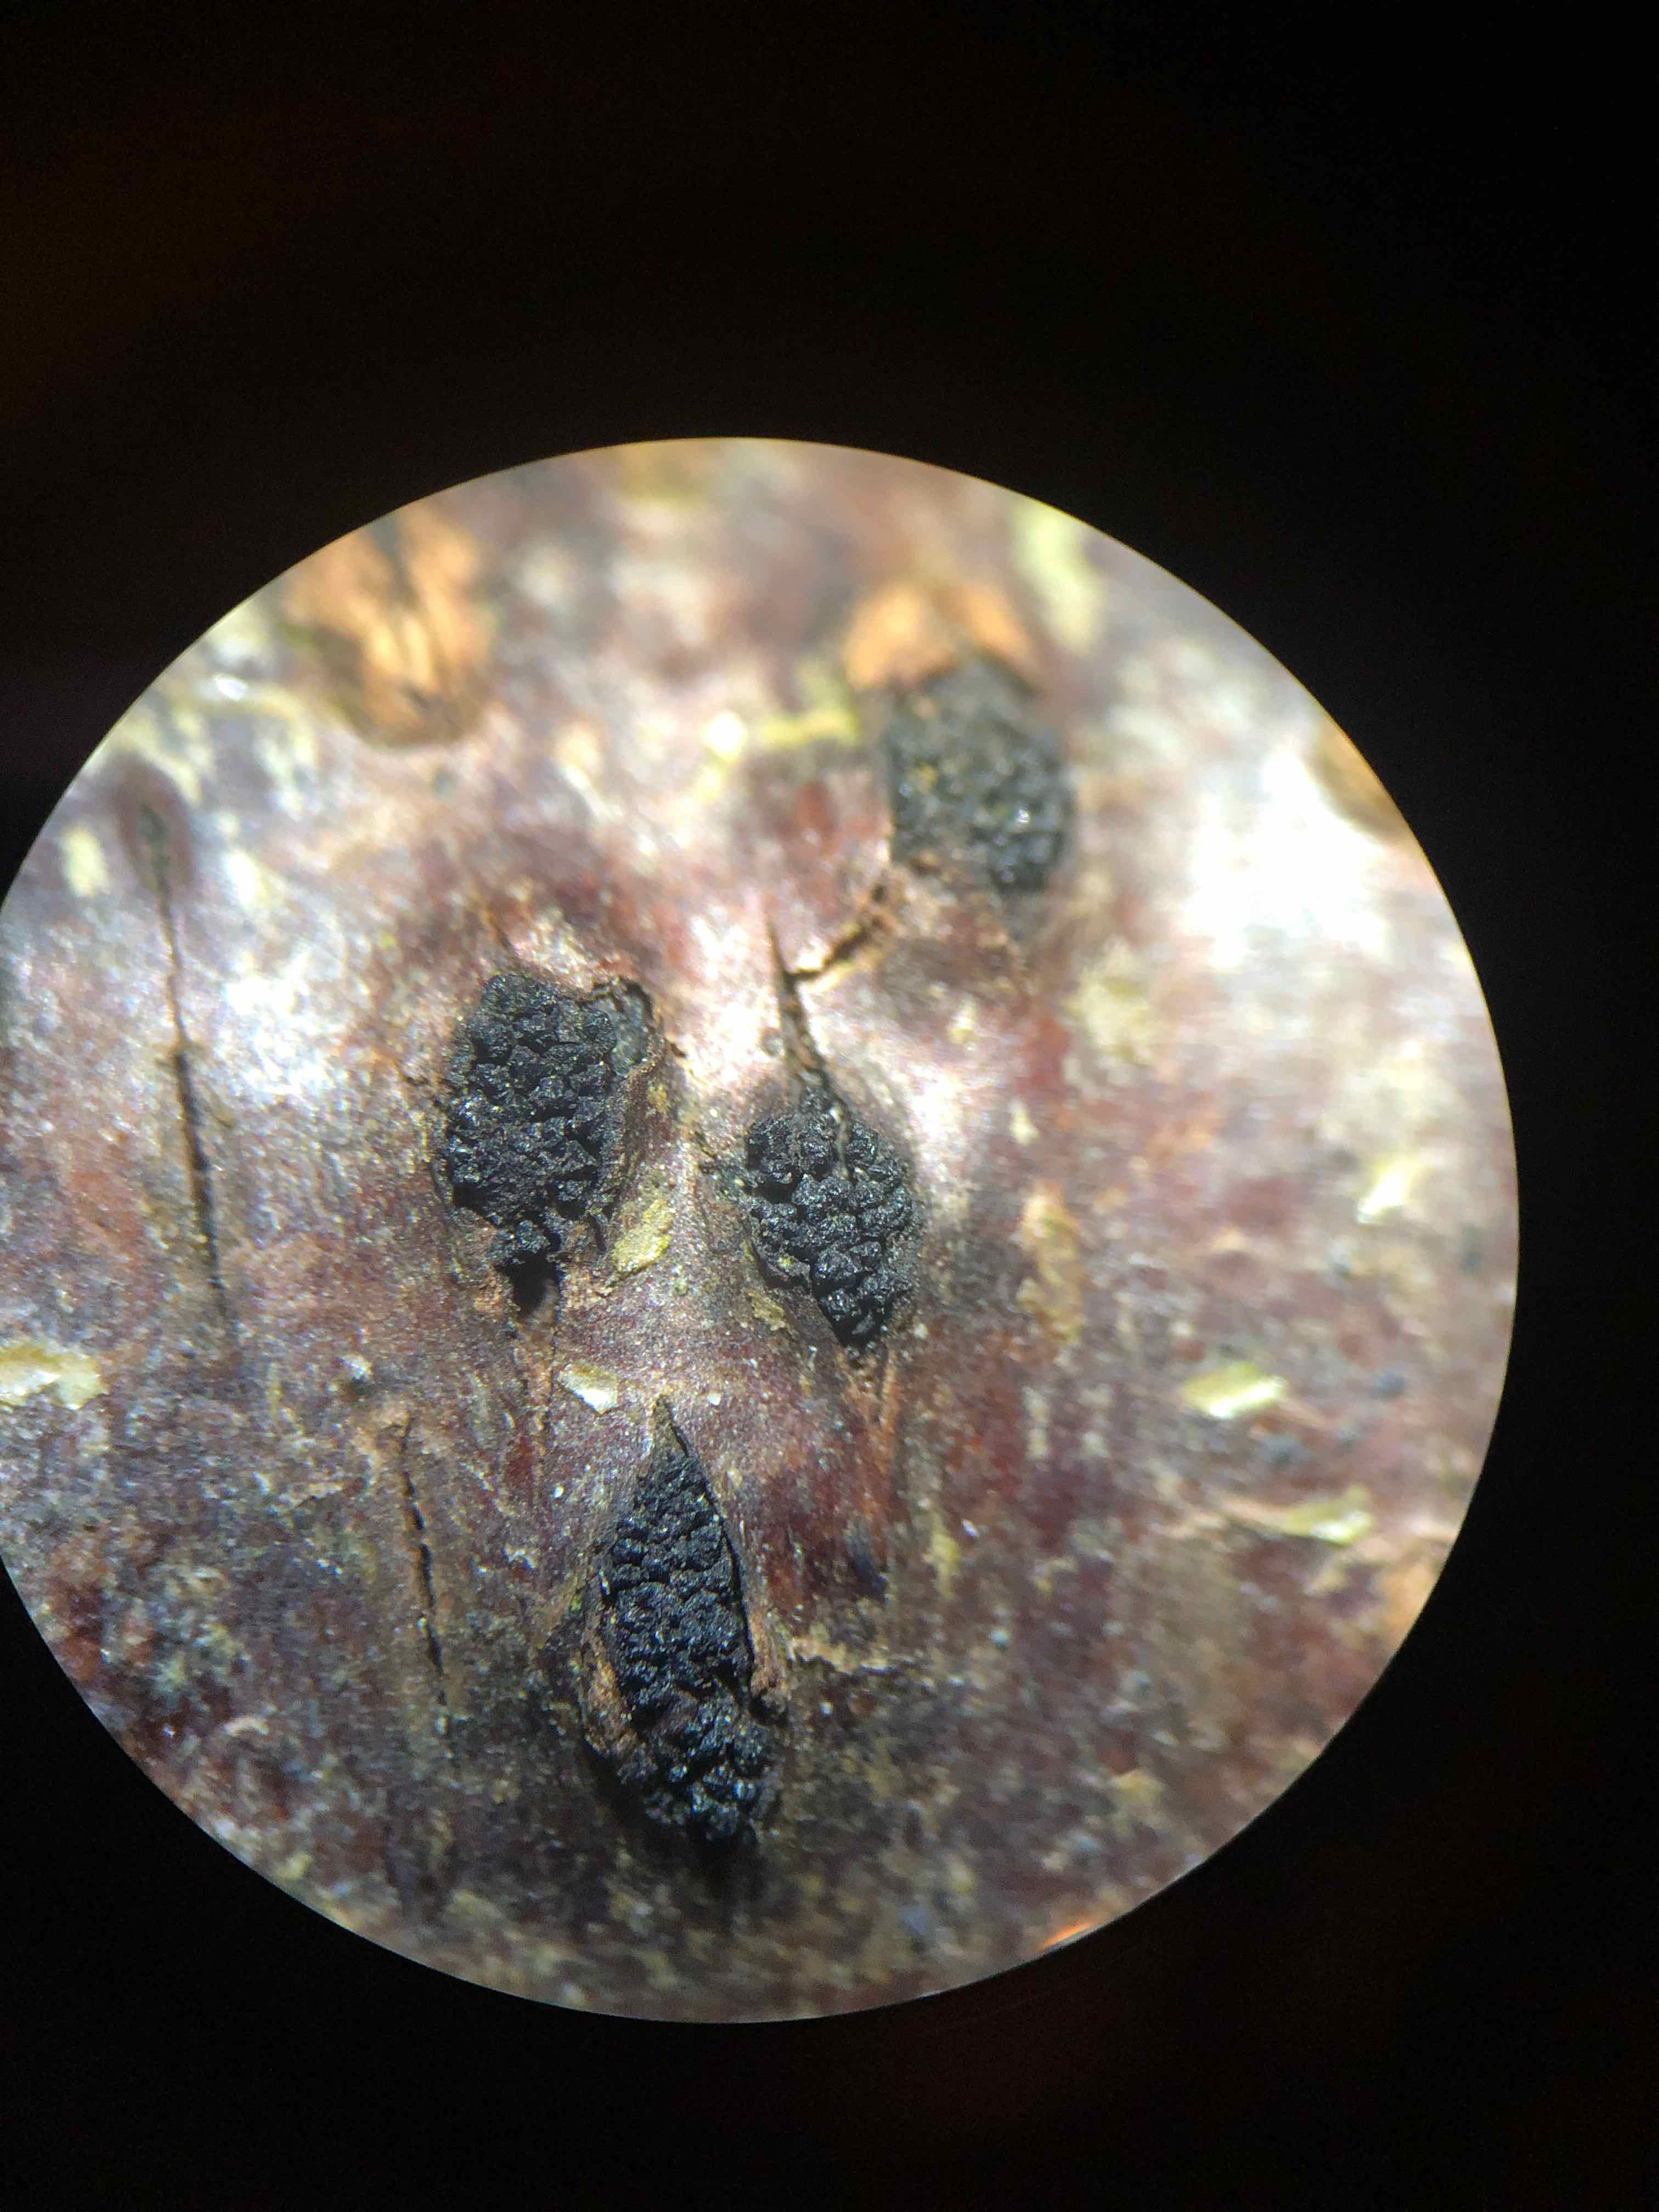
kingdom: Fungi
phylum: Ascomycota
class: Sordariomycetes
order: Xylariales
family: Diatrypaceae
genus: Eutypella
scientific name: Eutypella prunastri
